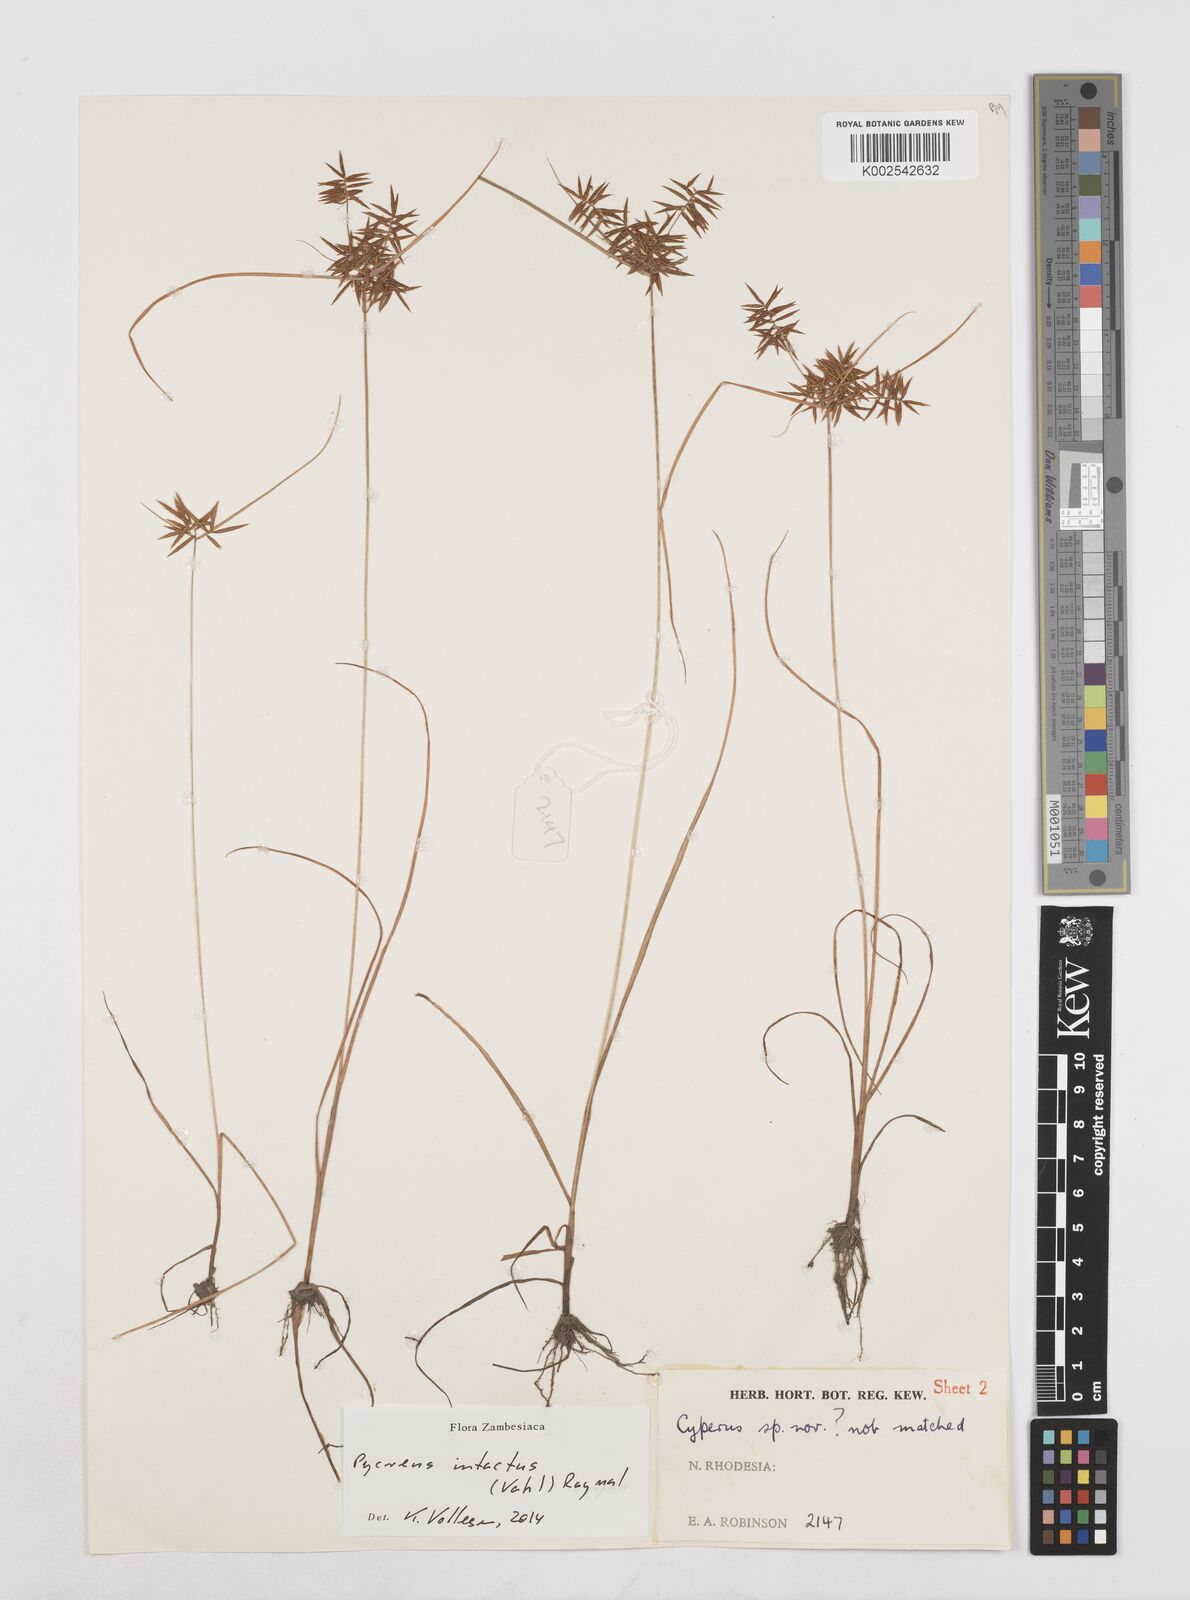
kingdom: Plantae
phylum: Tracheophyta
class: Liliopsida
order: Poales
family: Cyperaceae
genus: Cyperus
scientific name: Cyperus intactus
